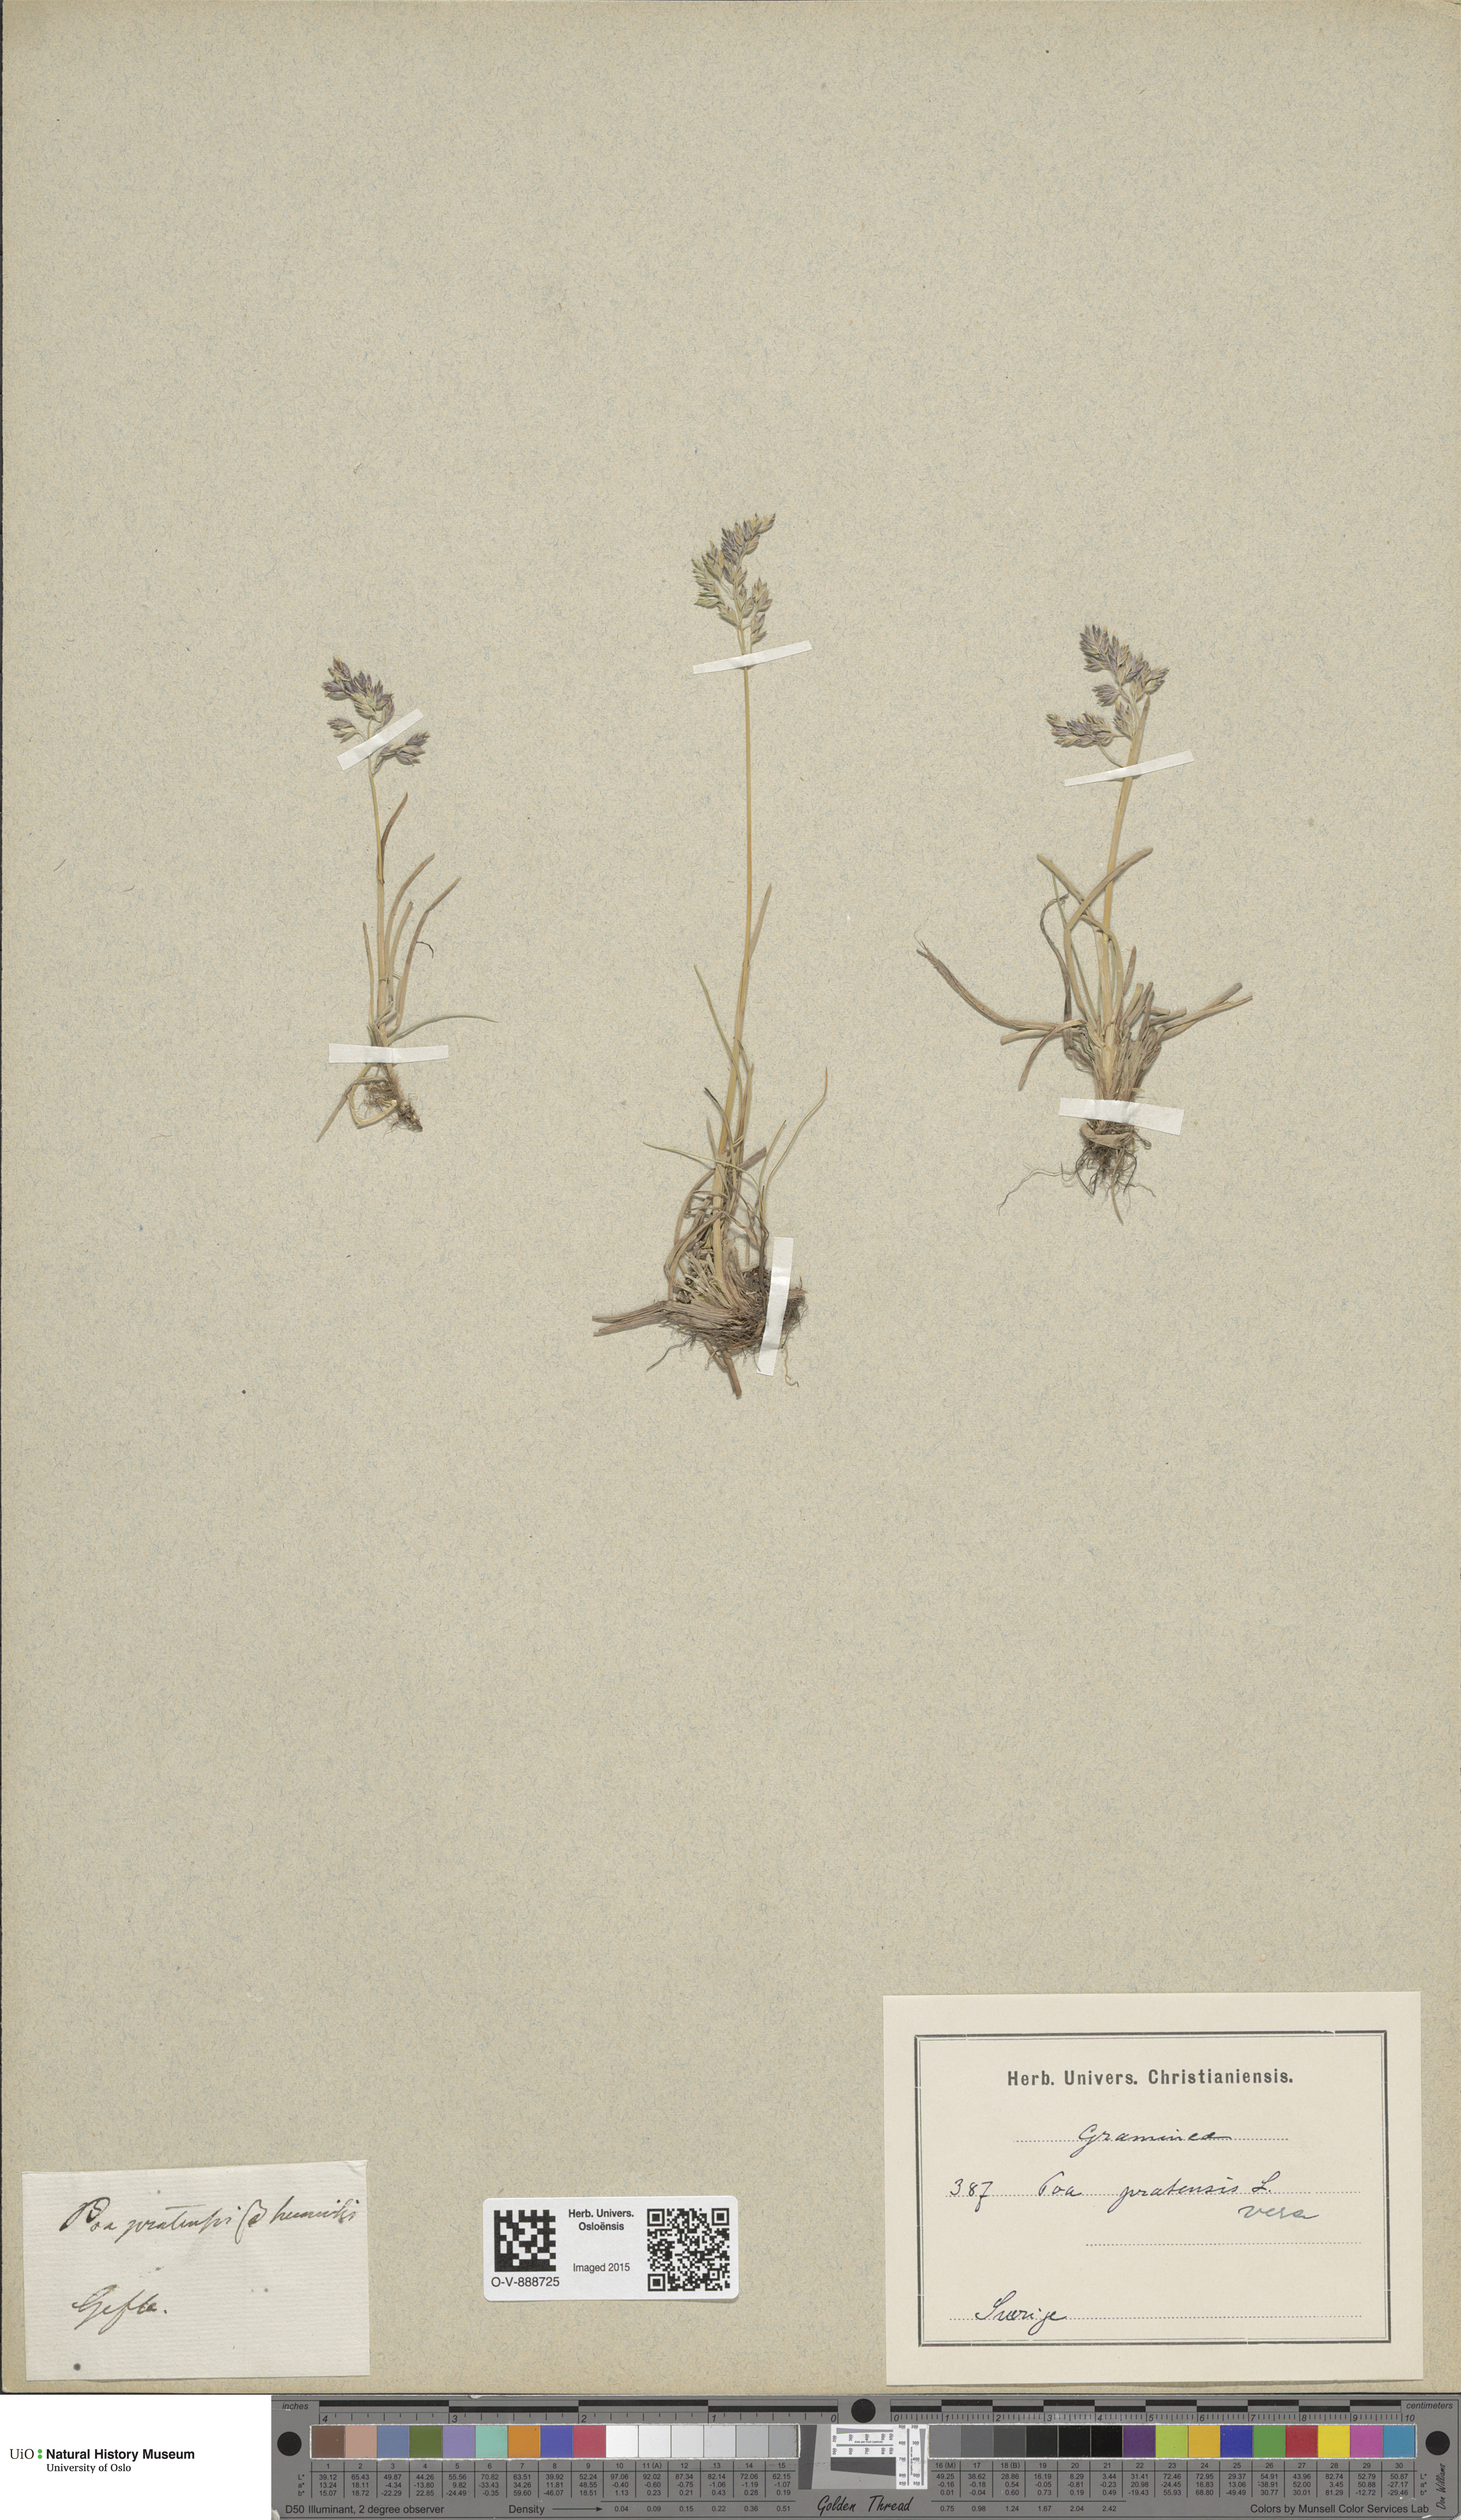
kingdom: Plantae
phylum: Tracheophyta
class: Liliopsida
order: Poales
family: Poaceae
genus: Poa
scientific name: Poa pratensis
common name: Kentucky bluegrass
